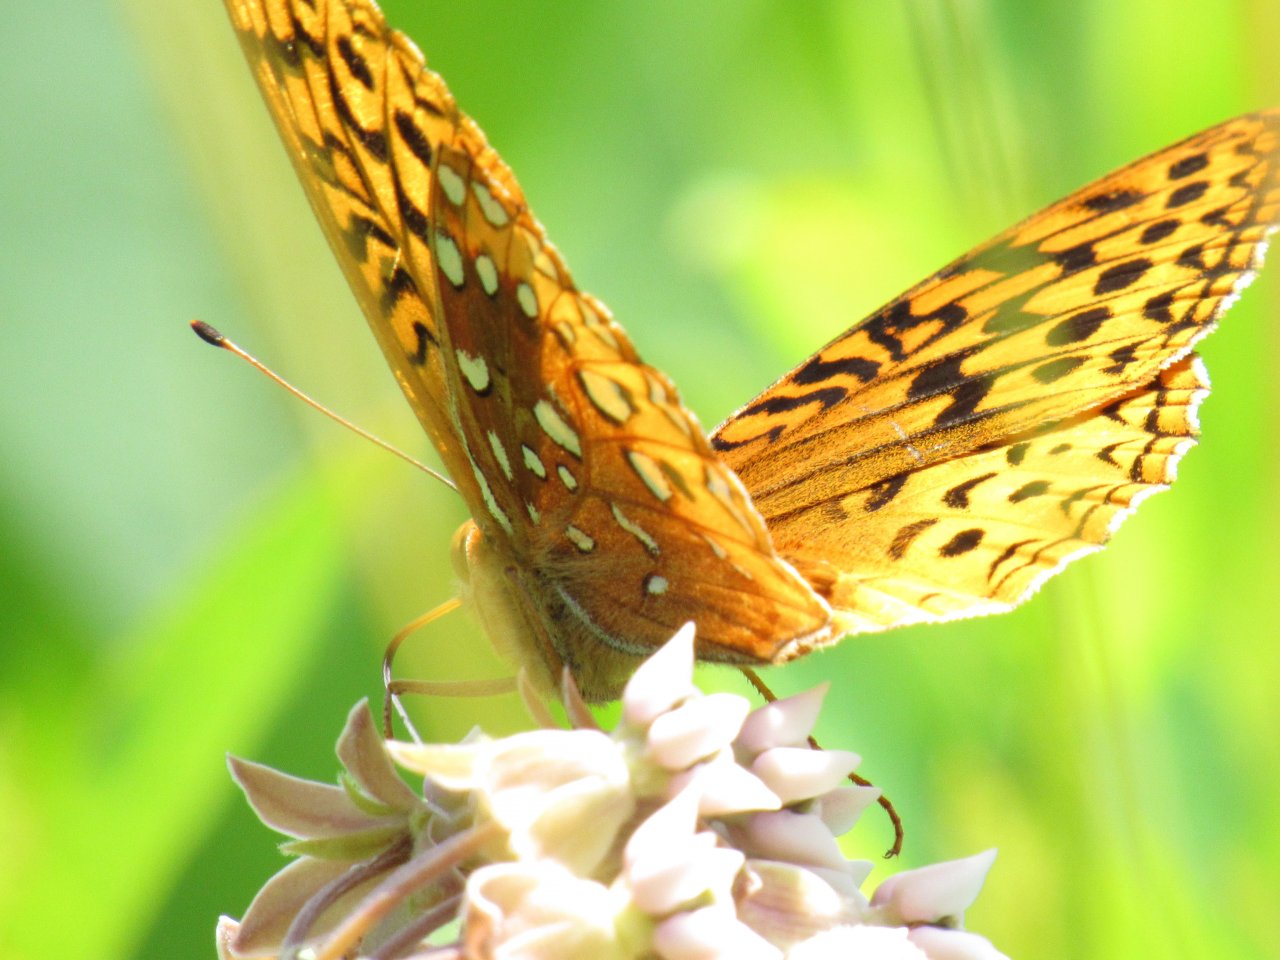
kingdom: Animalia
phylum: Arthropoda
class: Insecta
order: Lepidoptera
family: Nymphalidae
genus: Speyeria
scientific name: Speyeria cybele
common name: Great Spangled Fritillary
